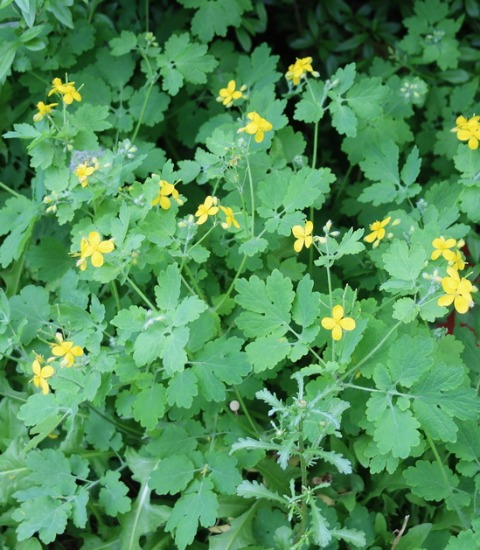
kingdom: Plantae
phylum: Tracheophyta
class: Magnoliopsida
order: Ranunculales
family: Papaveraceae
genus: Chelidonium
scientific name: Chelidonium majus
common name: Svaleurt
